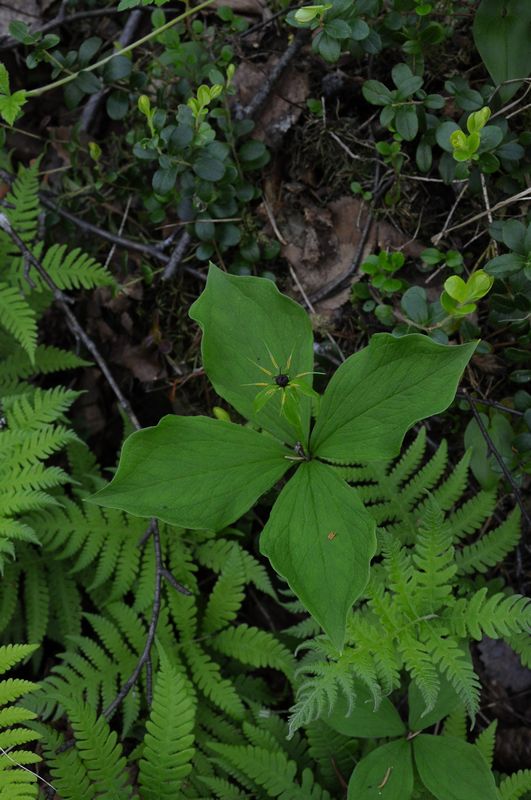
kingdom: Plantae
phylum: Tracheophyta
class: Liliopsida
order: Liliales
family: Melanthiaceae
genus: Paris
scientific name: Paris quadrifolia
